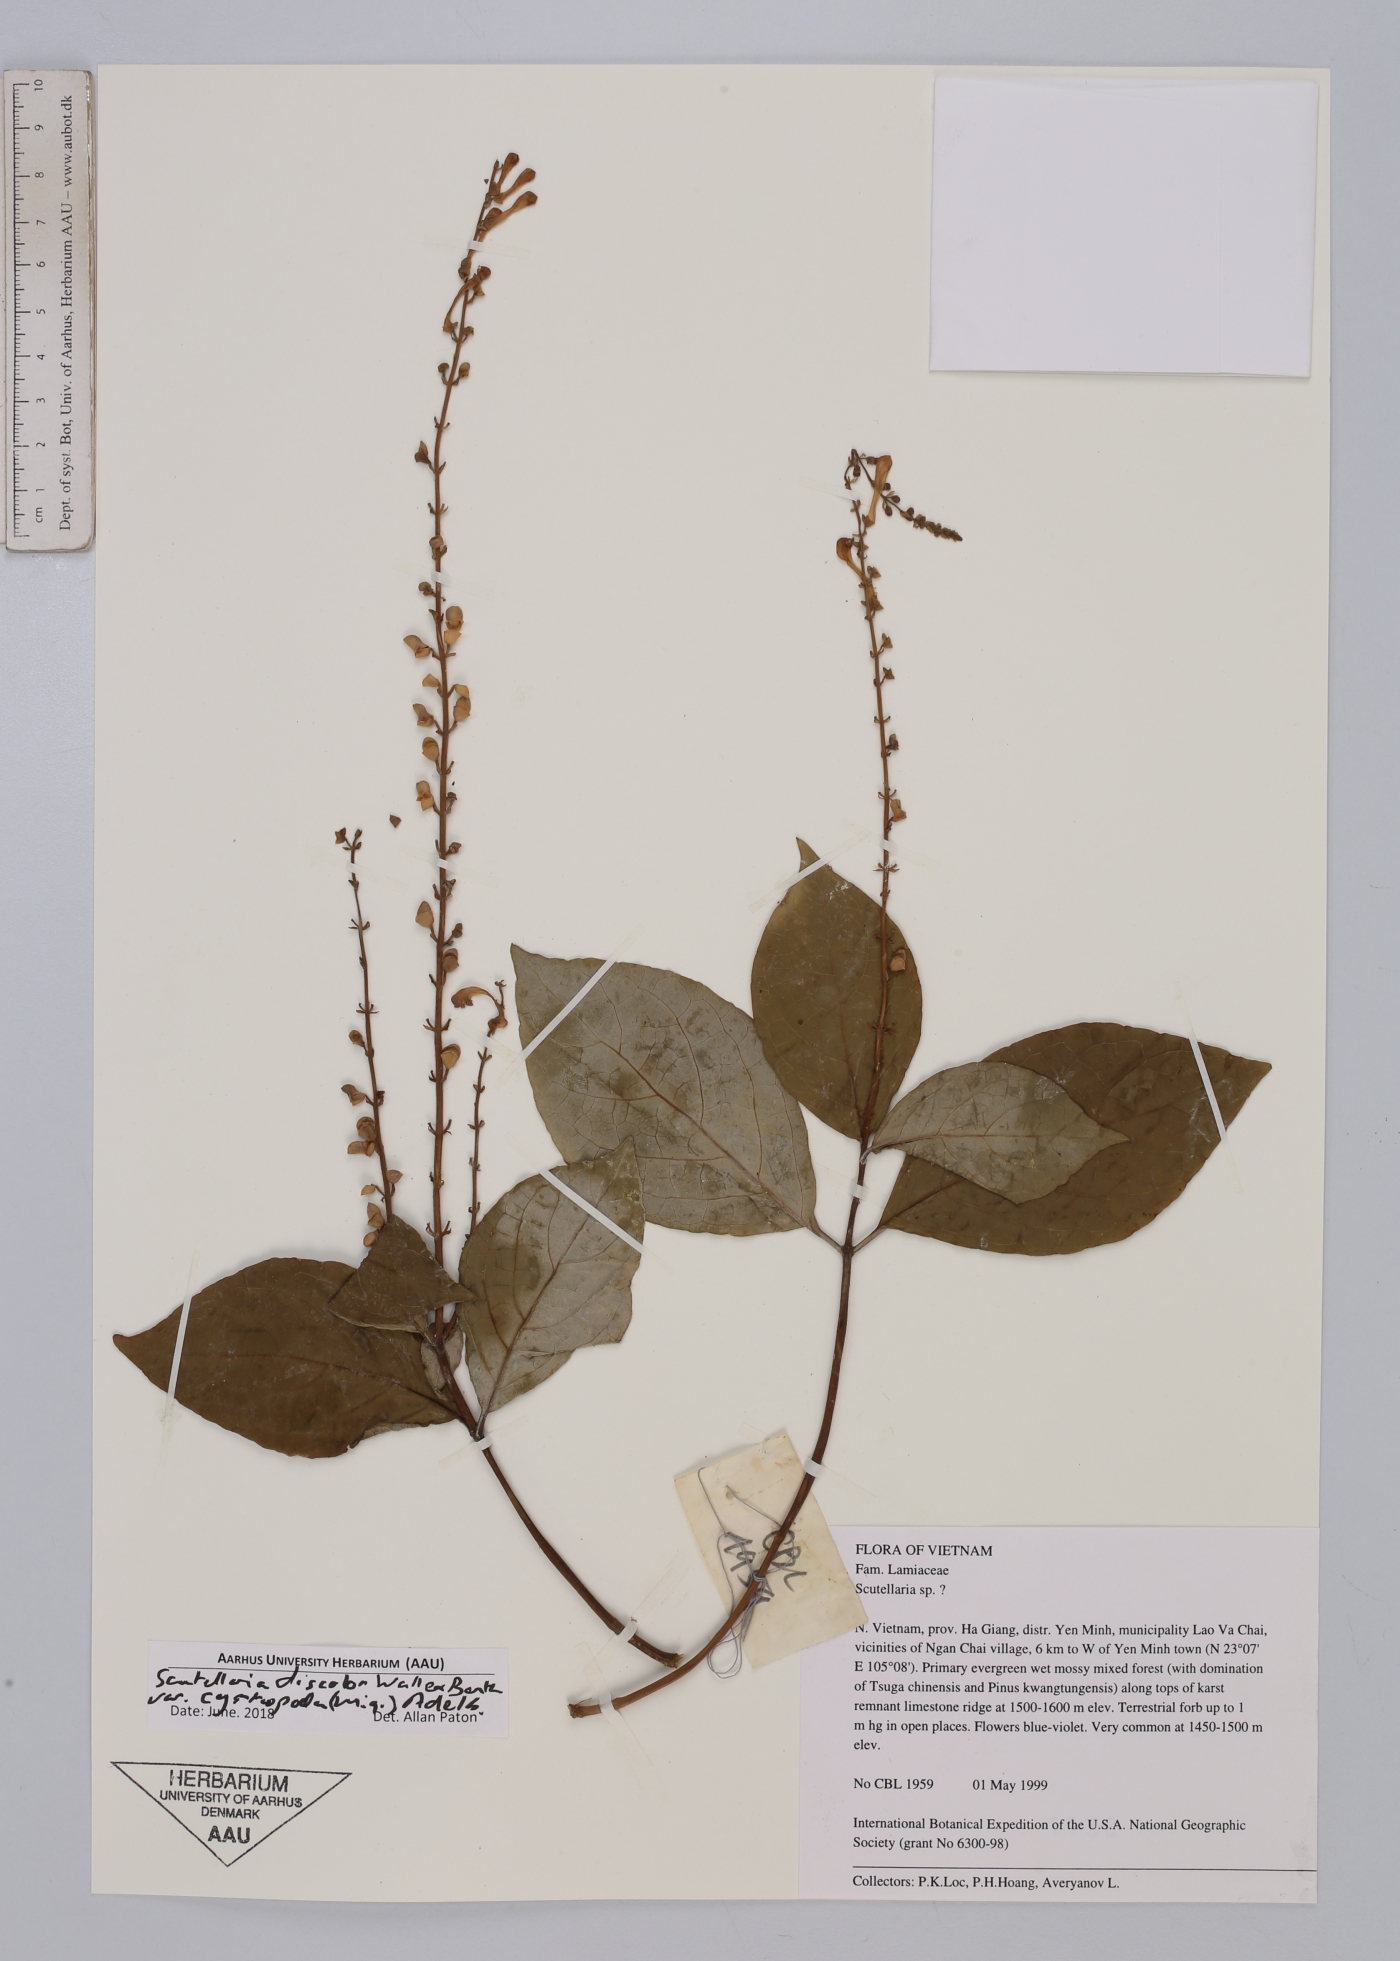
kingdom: Plantae
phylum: Tracheophyta
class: Magnoliopsida
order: Lamiales
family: Lamiaceae
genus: Scutellaria
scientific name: Scutellaria discolor
